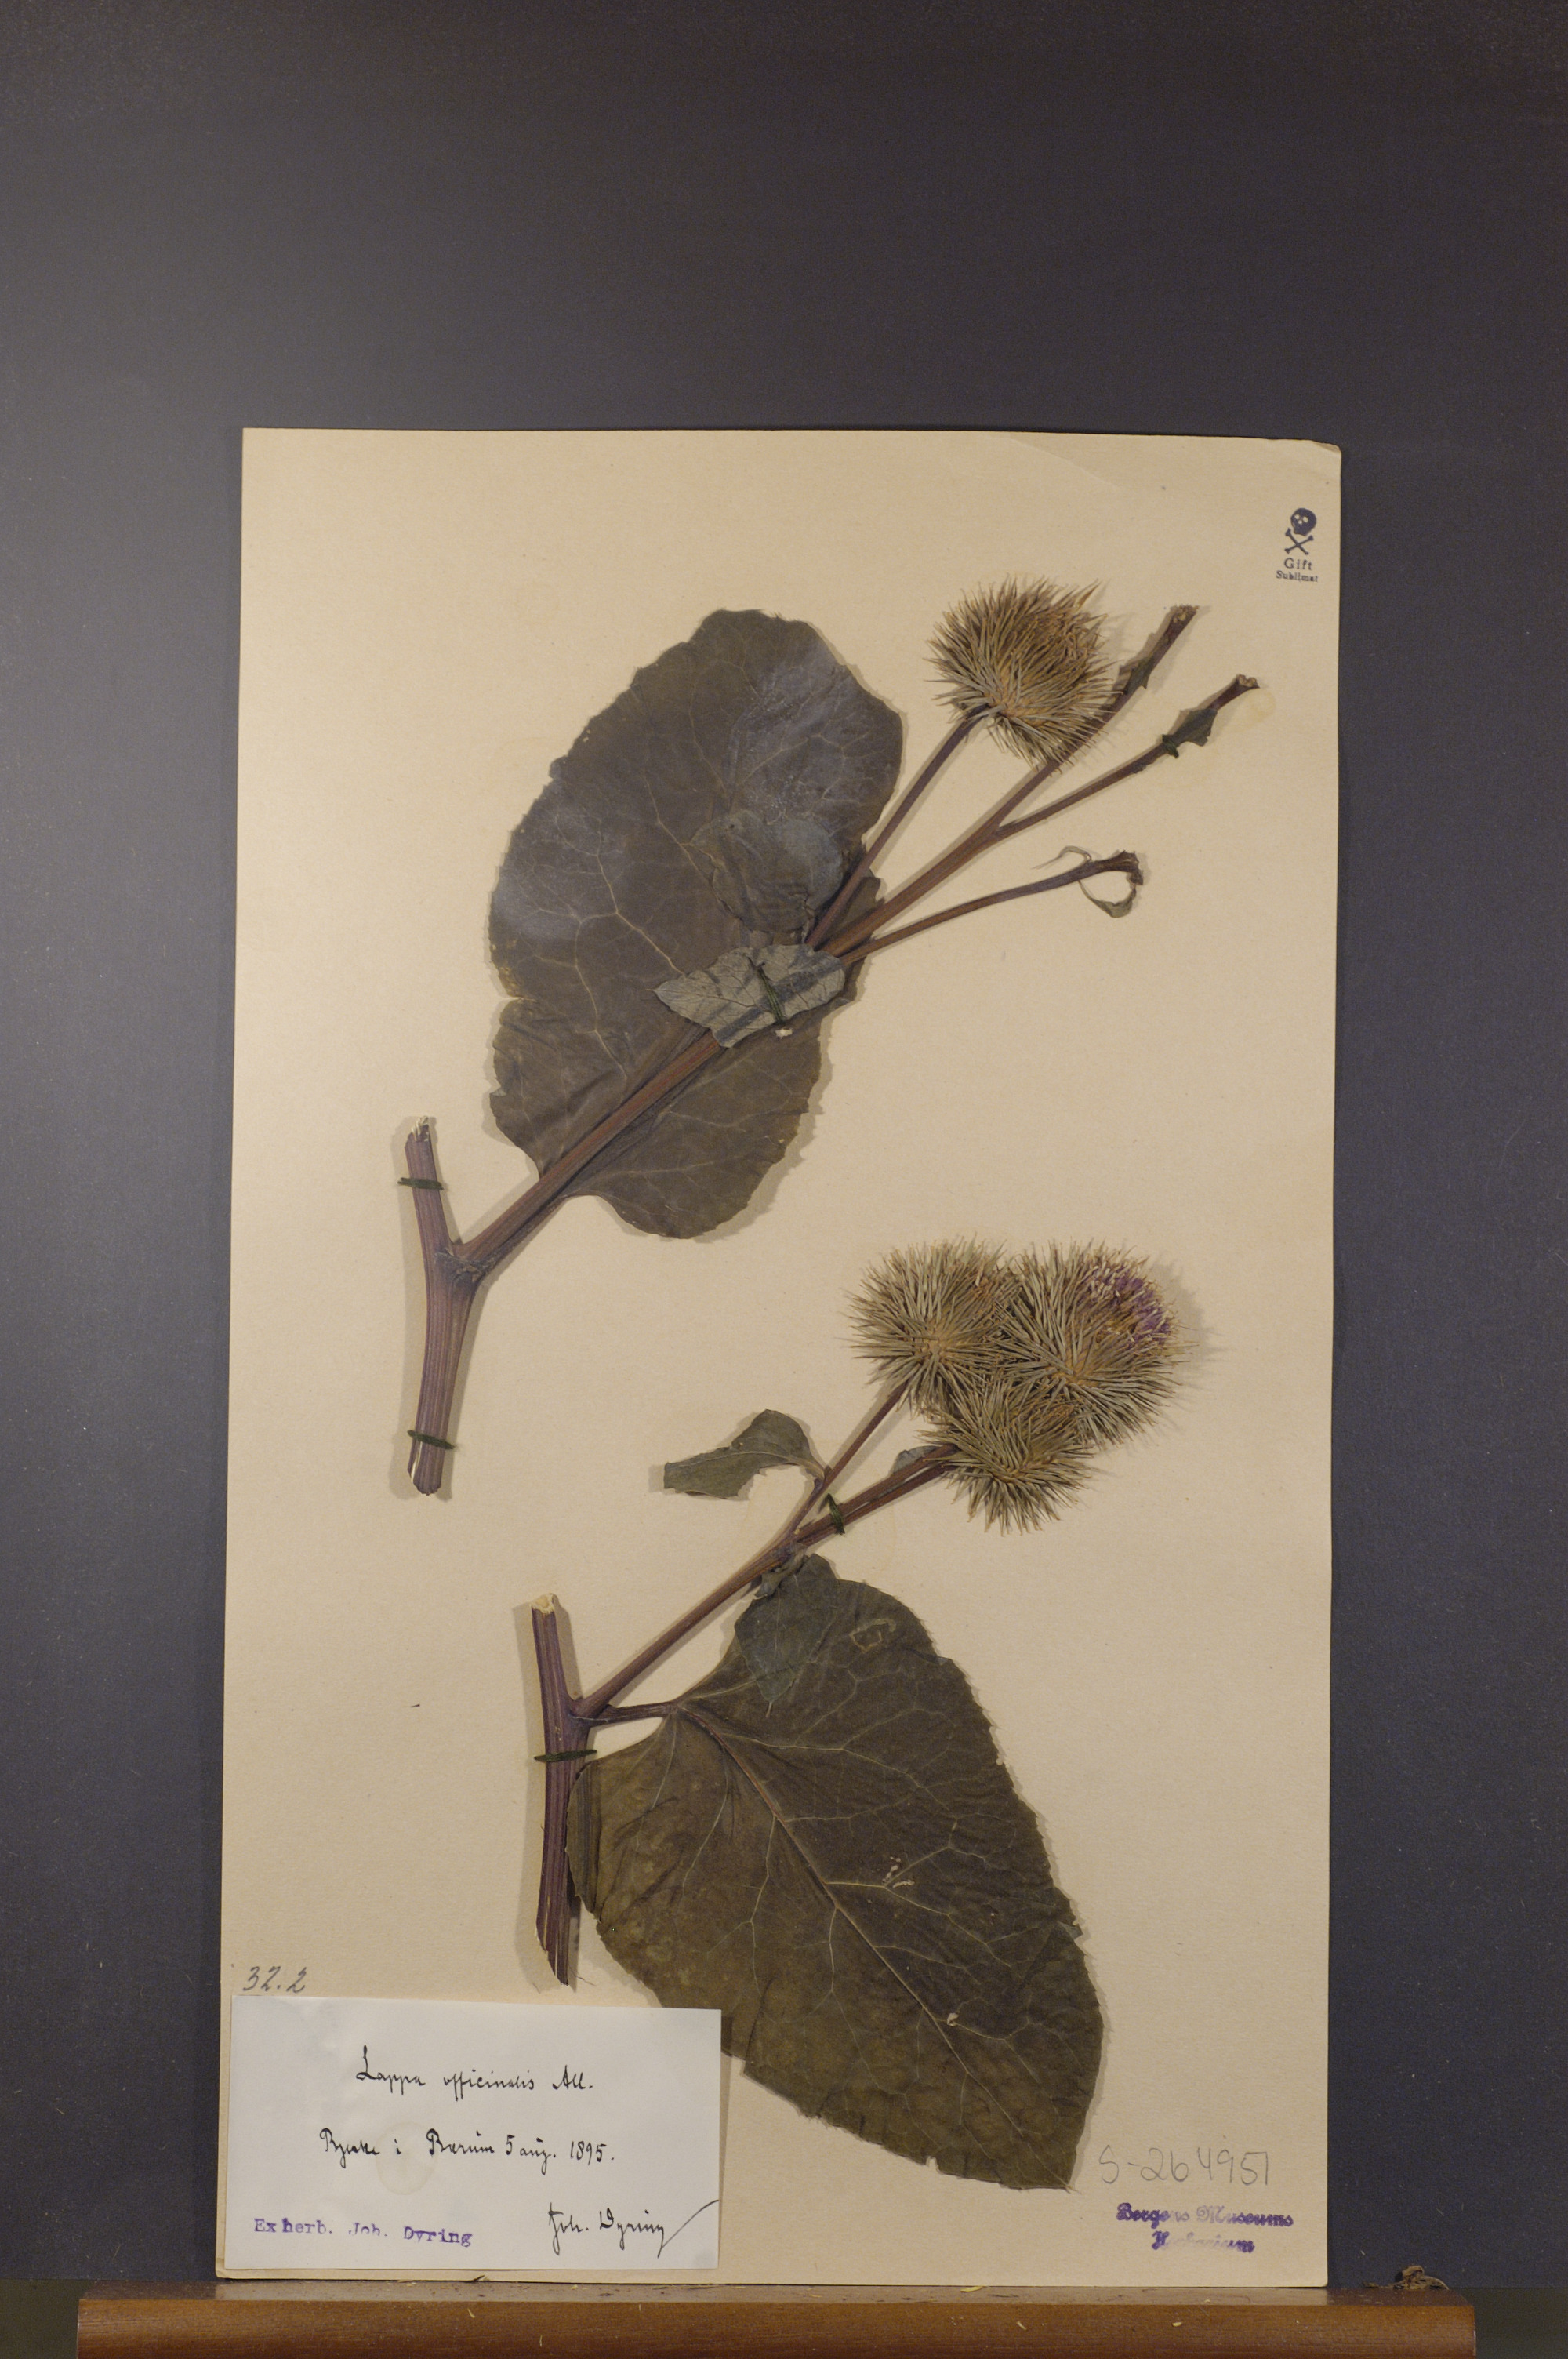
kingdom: Plantae
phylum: Tracheophyta
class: Magnoliopsida
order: Asterales
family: Asteraceae
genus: Arctium
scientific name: Arctium lappa
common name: Greater burdock
